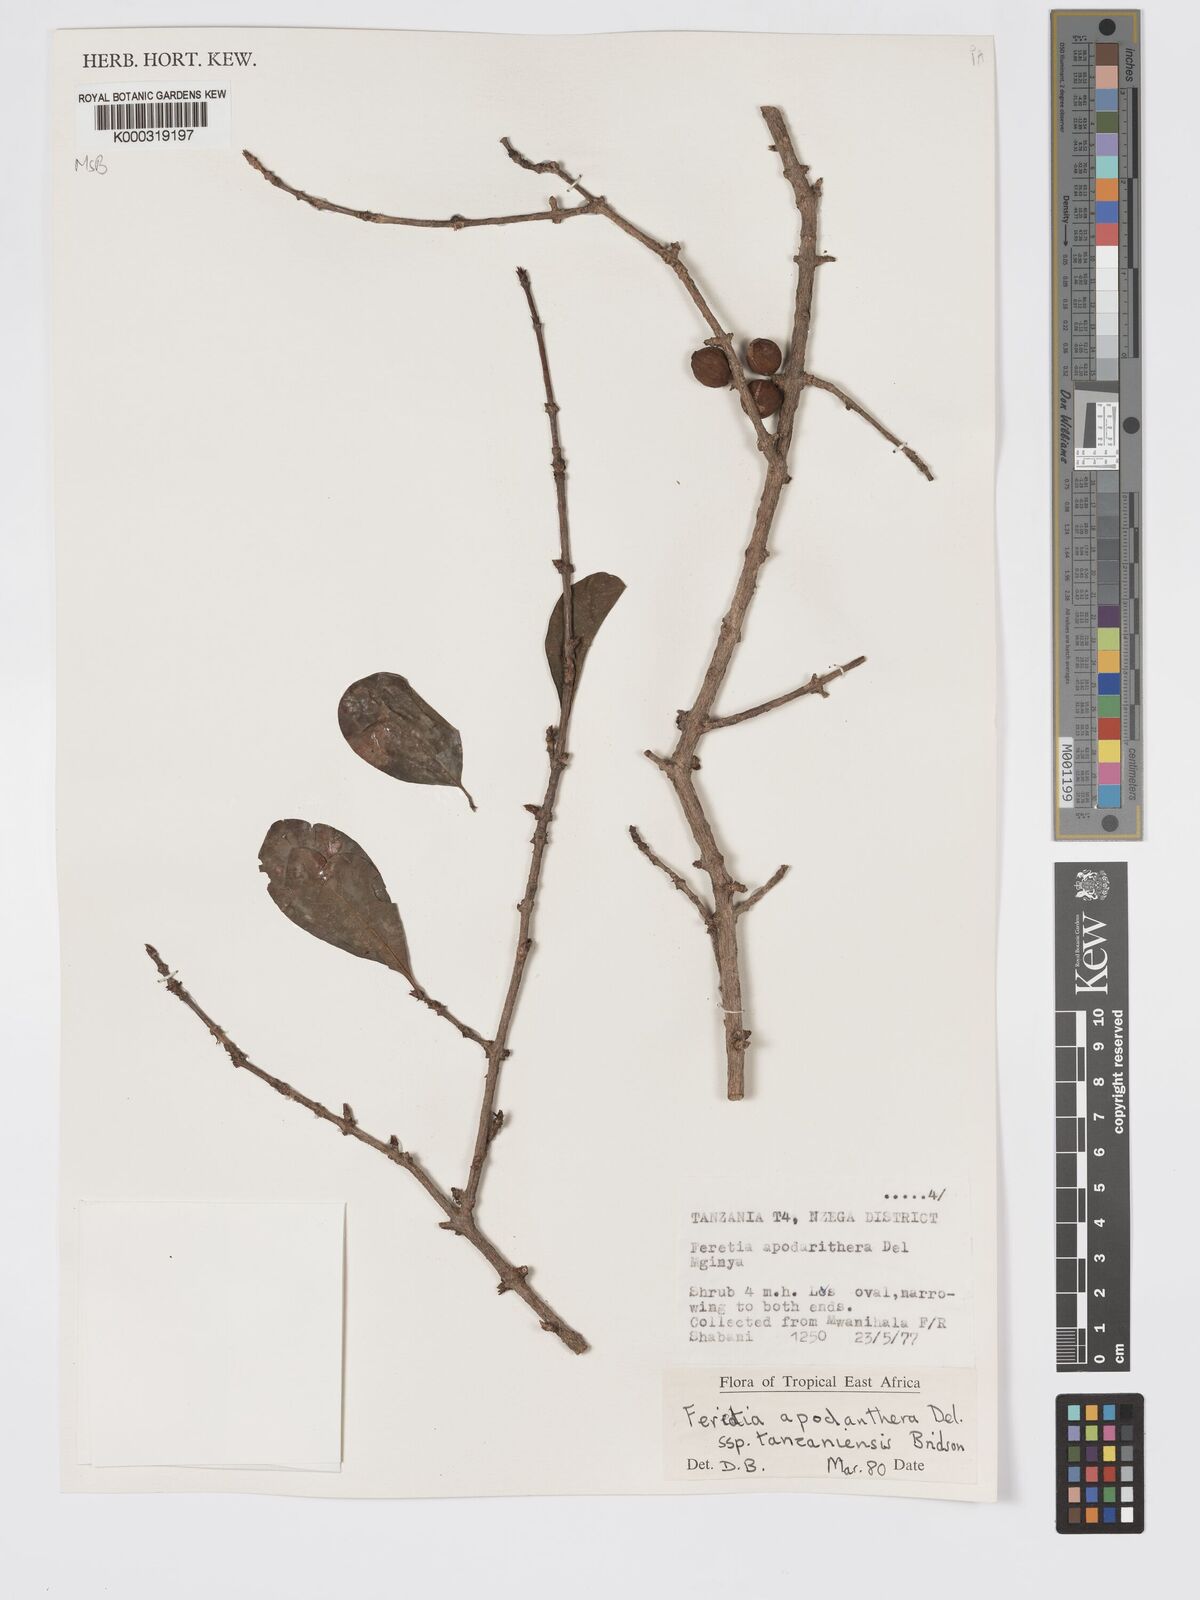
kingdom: Plantae
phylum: Tracheophyta
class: Magnoliopsida
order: Gentianales
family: Rubiaceae
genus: Feretia
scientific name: Feretia apodanthera
